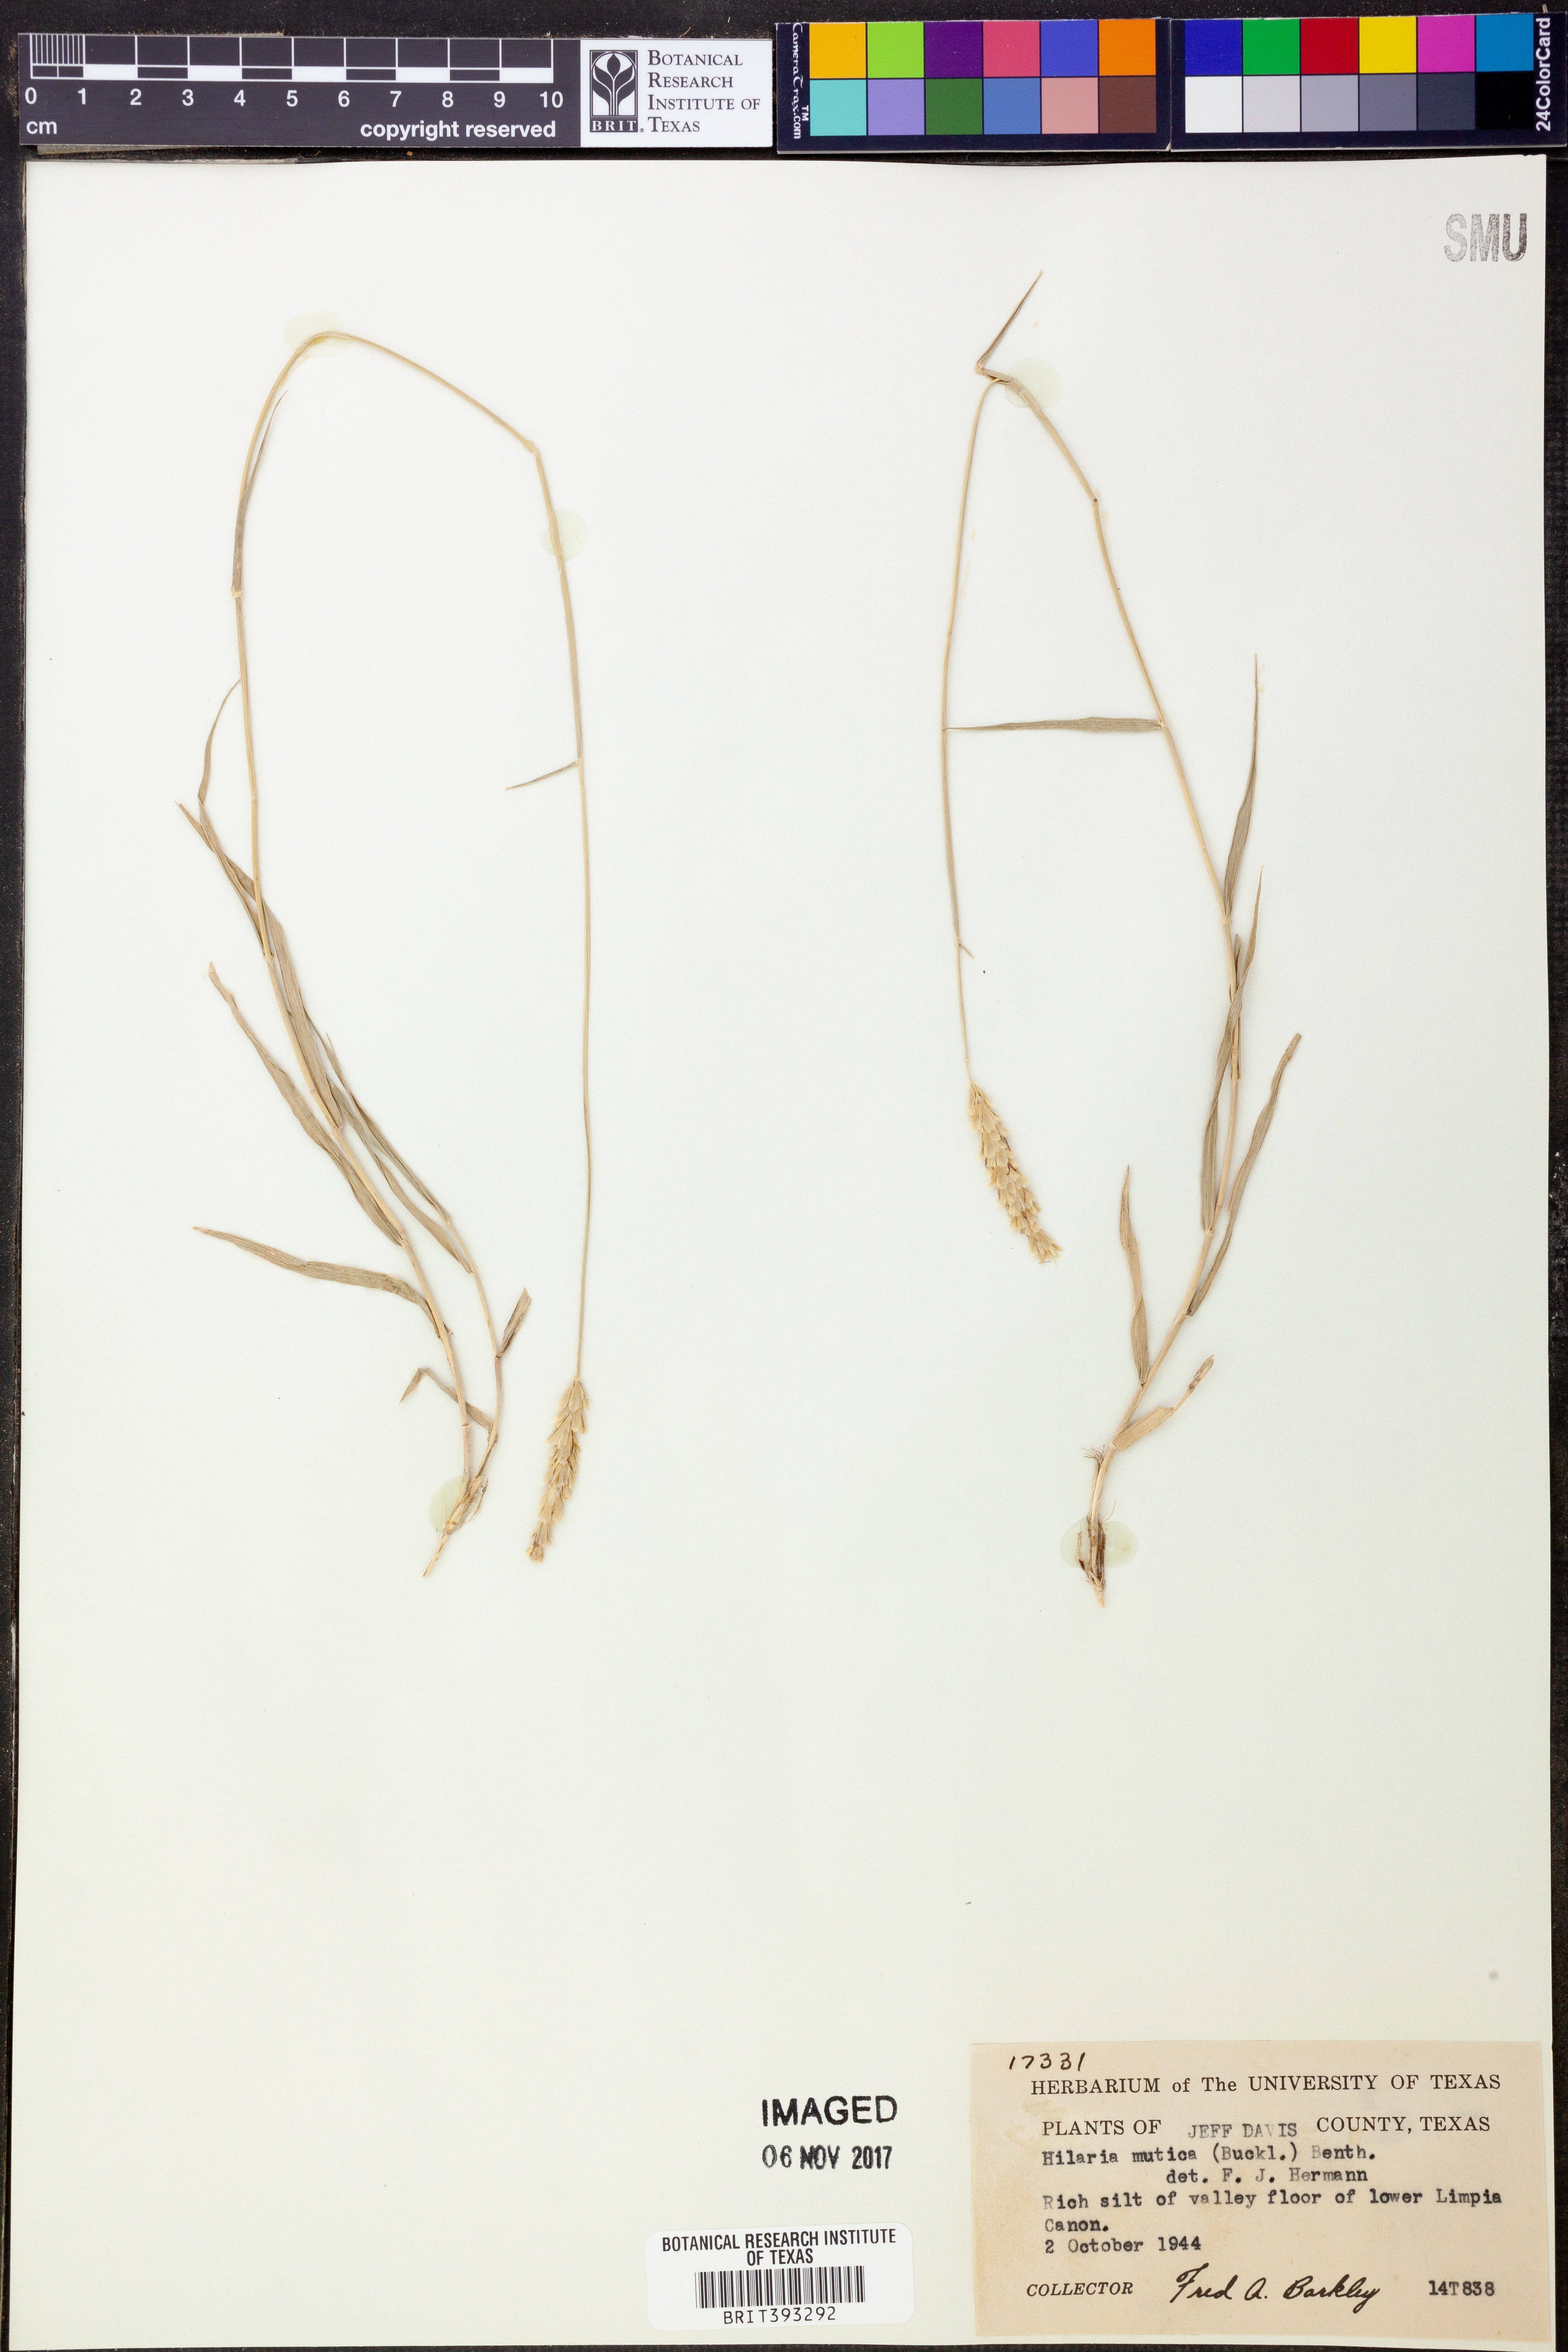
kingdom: Plantae
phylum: Tracheophyta
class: Liliopsida
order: Poales
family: Poaceae
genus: Hilaria
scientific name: Hilaria mutica
